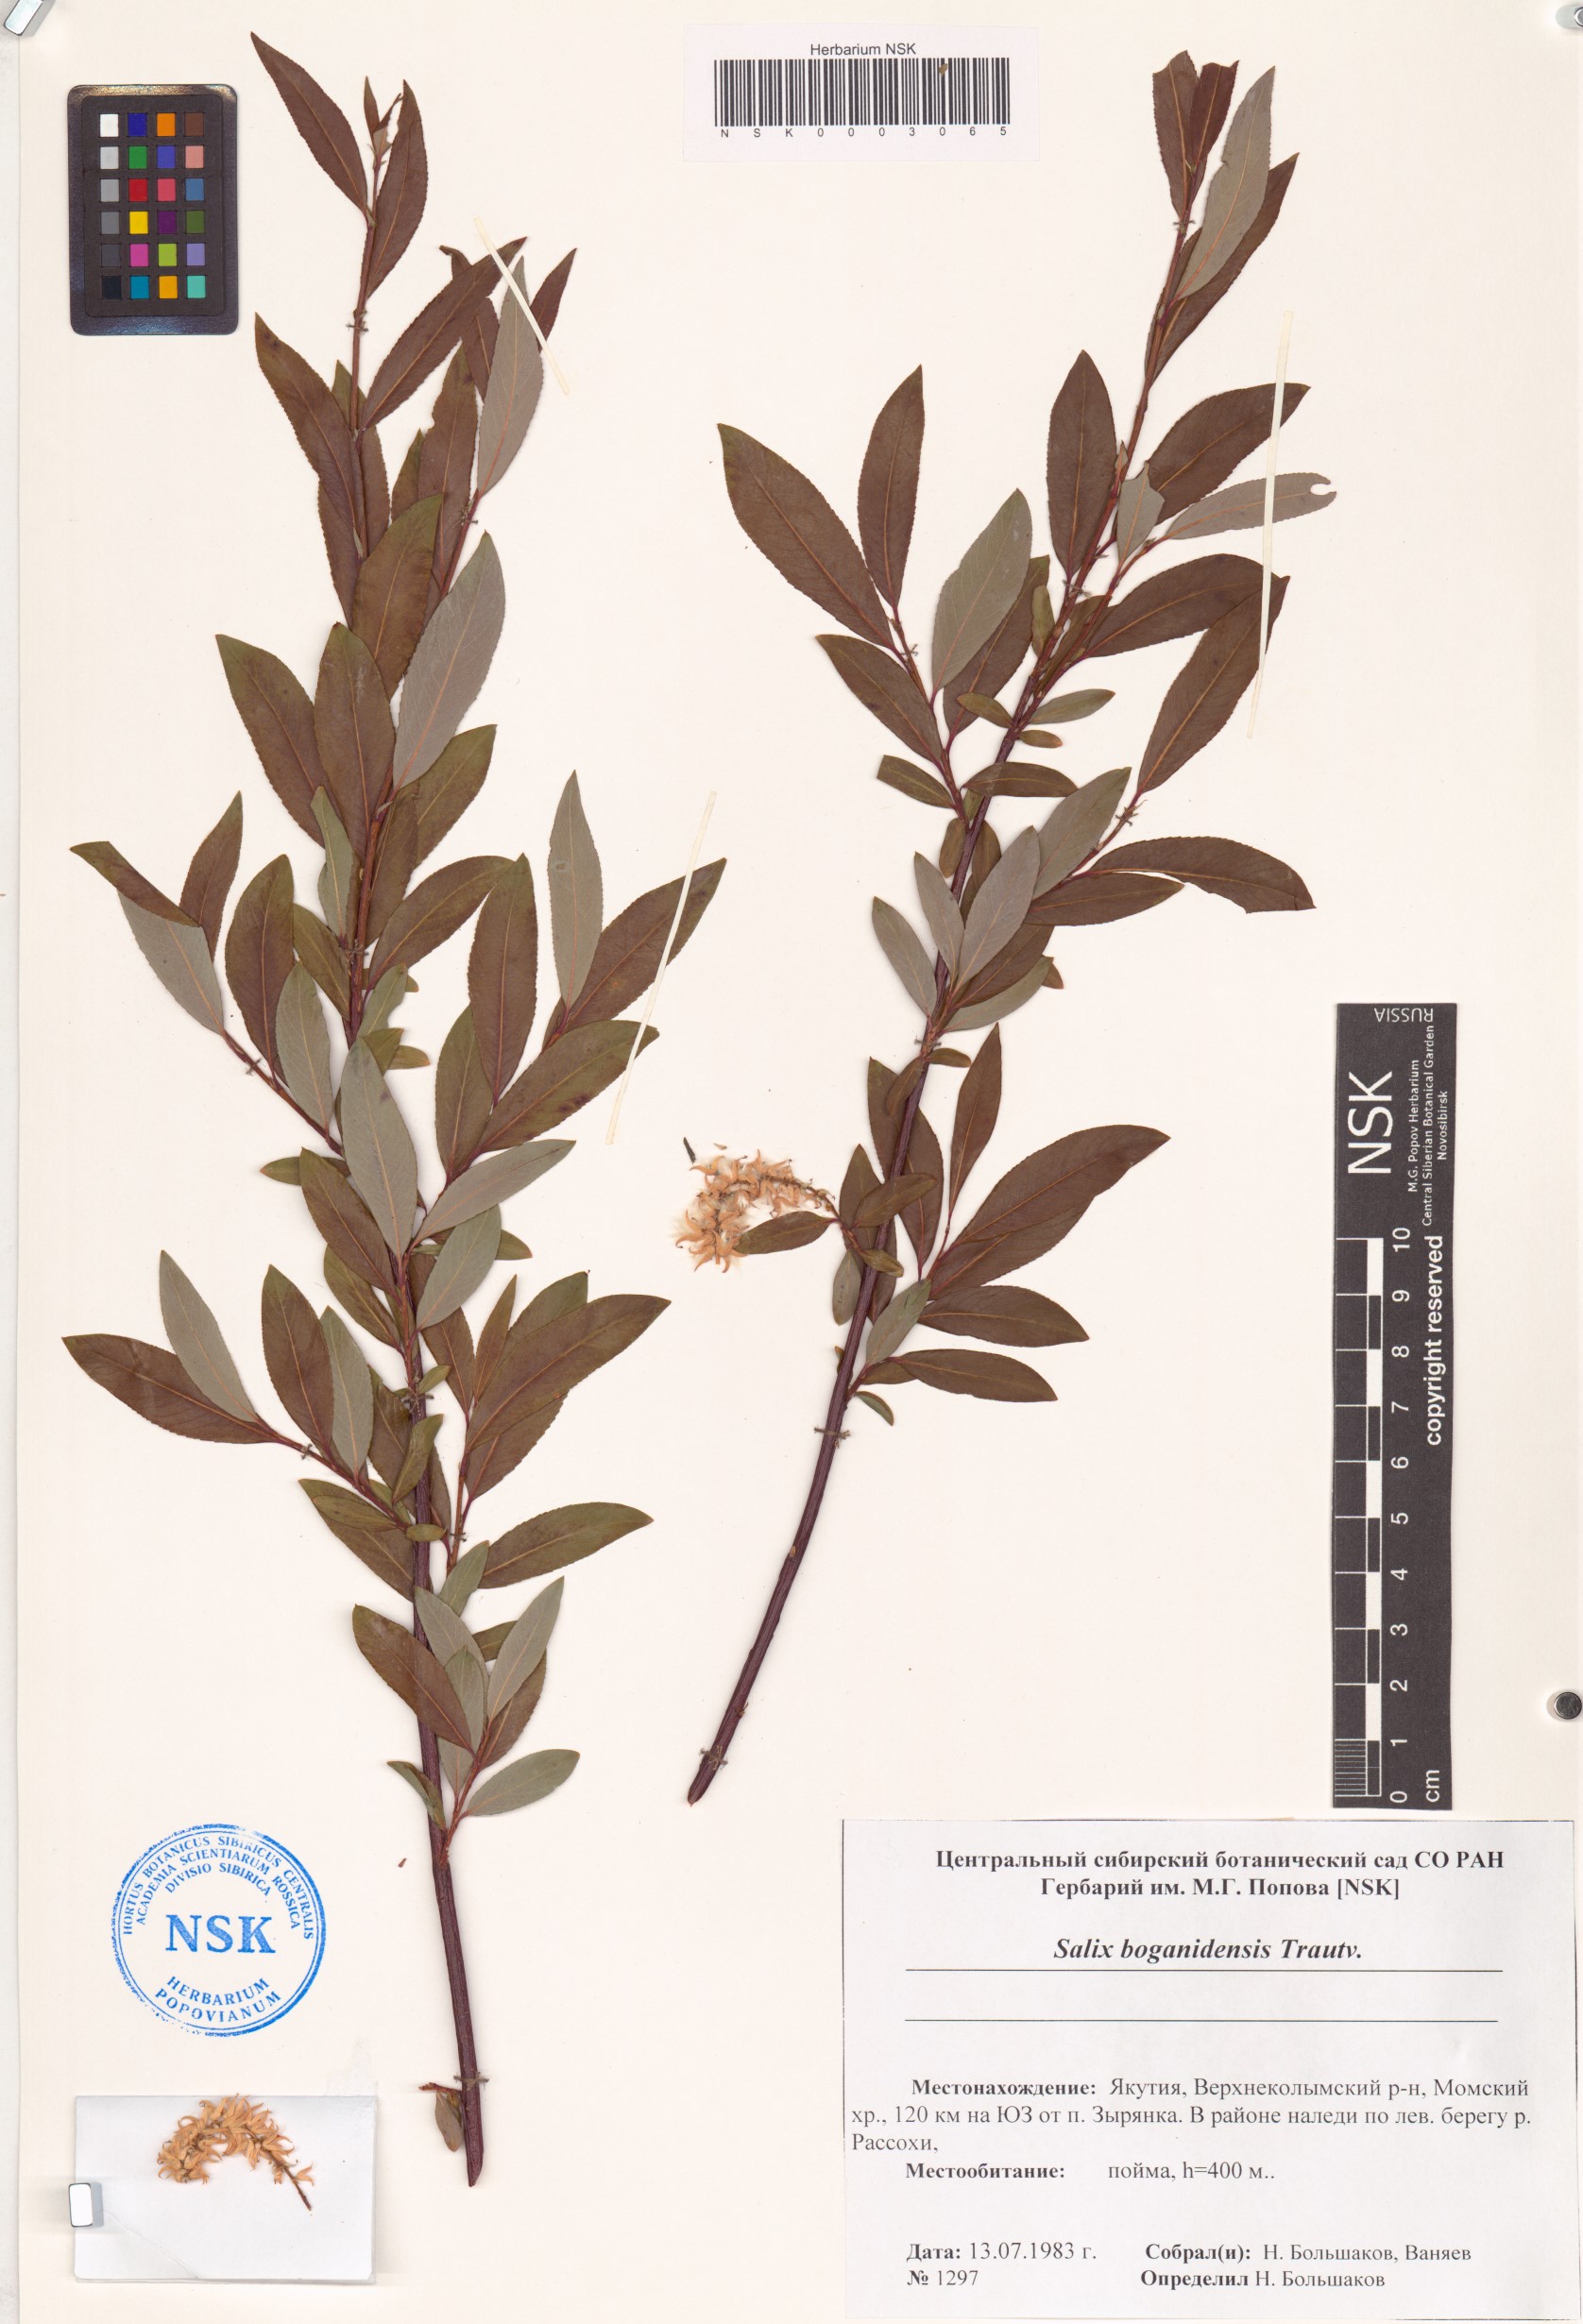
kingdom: Plantae
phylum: Tracheophyta
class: Magnoliopsida
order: Malpighiales
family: Salicaceae
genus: Salix
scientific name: Salix boganidensis
